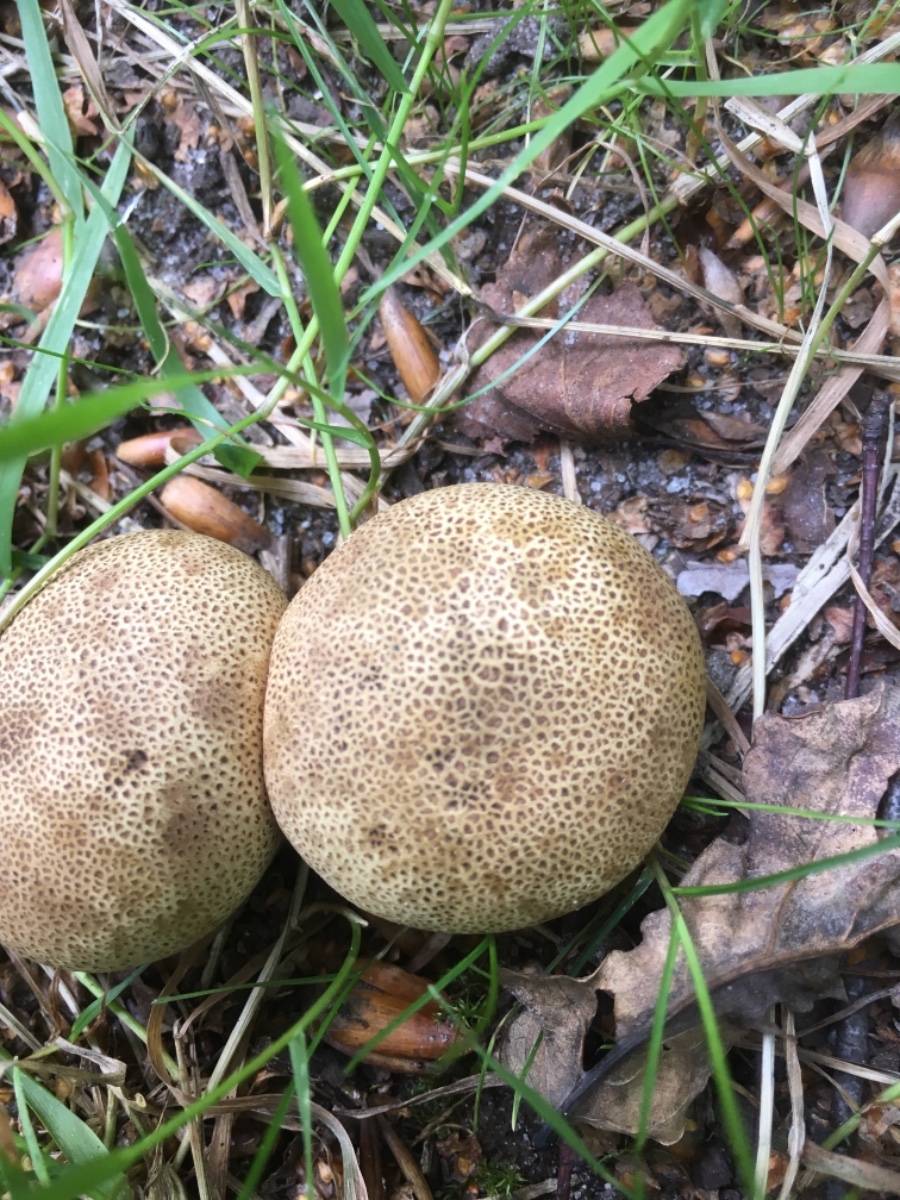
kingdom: Fungi
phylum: Basidiomycota
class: Agaricomycetes
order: Boletales
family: Sclerodermataceae
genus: Scleroderma
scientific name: Scleroderma areolatum
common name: plettet bruskbold
